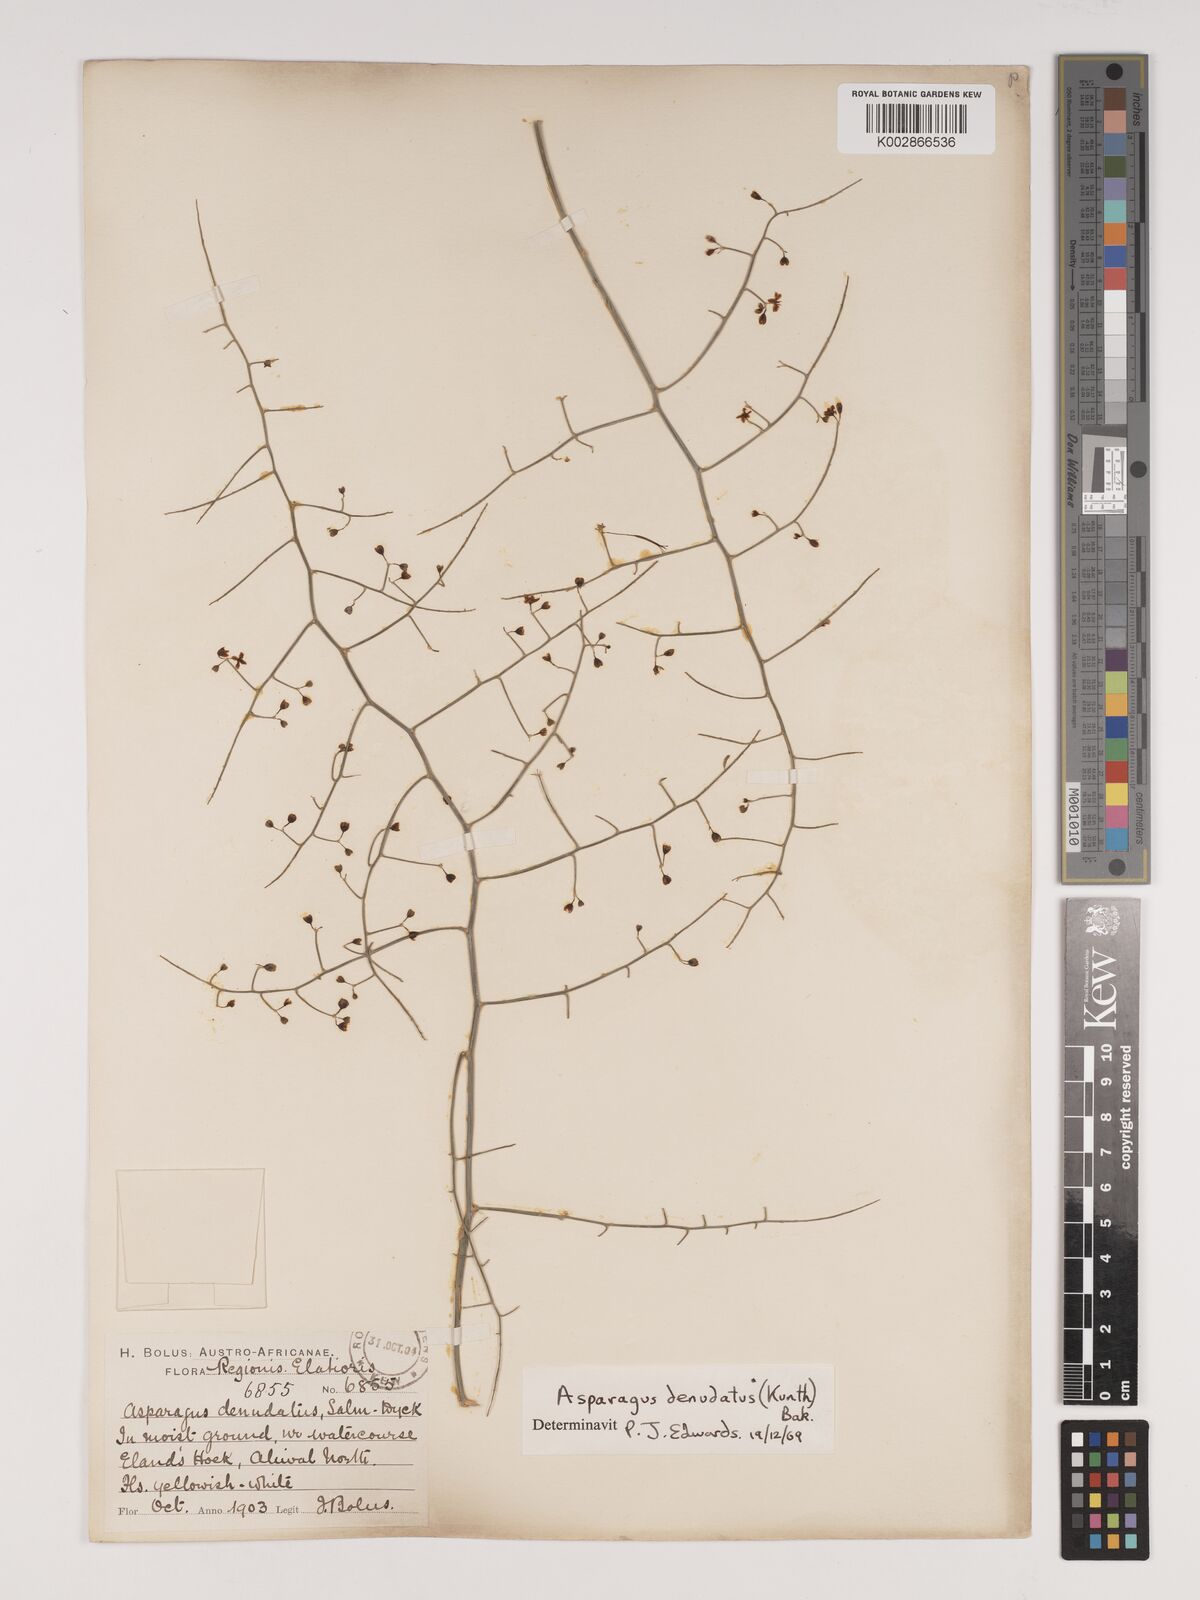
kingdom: Plantae
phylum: Tracheophyta
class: Liliopsida
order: Asparagales
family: Asparagaceae
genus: Asparagus
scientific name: Asparagus denudatus
